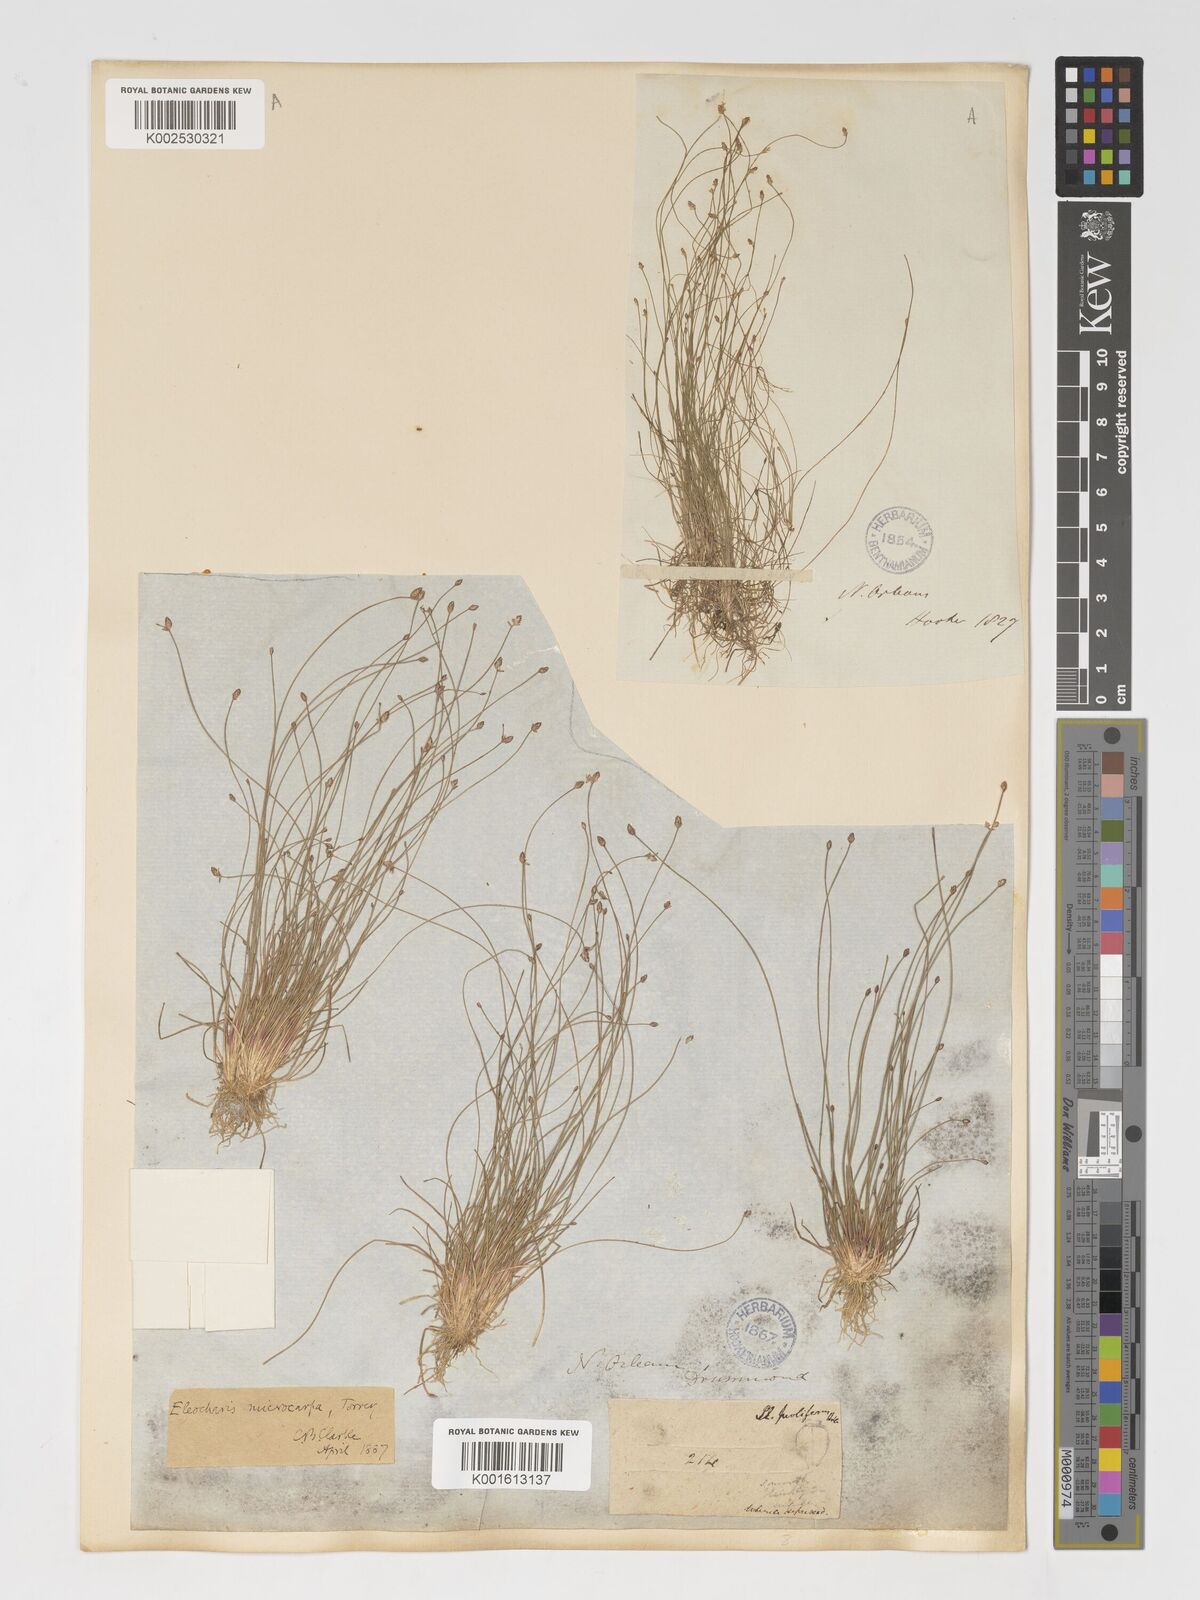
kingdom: Plantae
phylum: Tracheophyta
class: Liliopsida
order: Poales
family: Cyperaceae
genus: Eleocharis
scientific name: Eleocharis microcarpa
